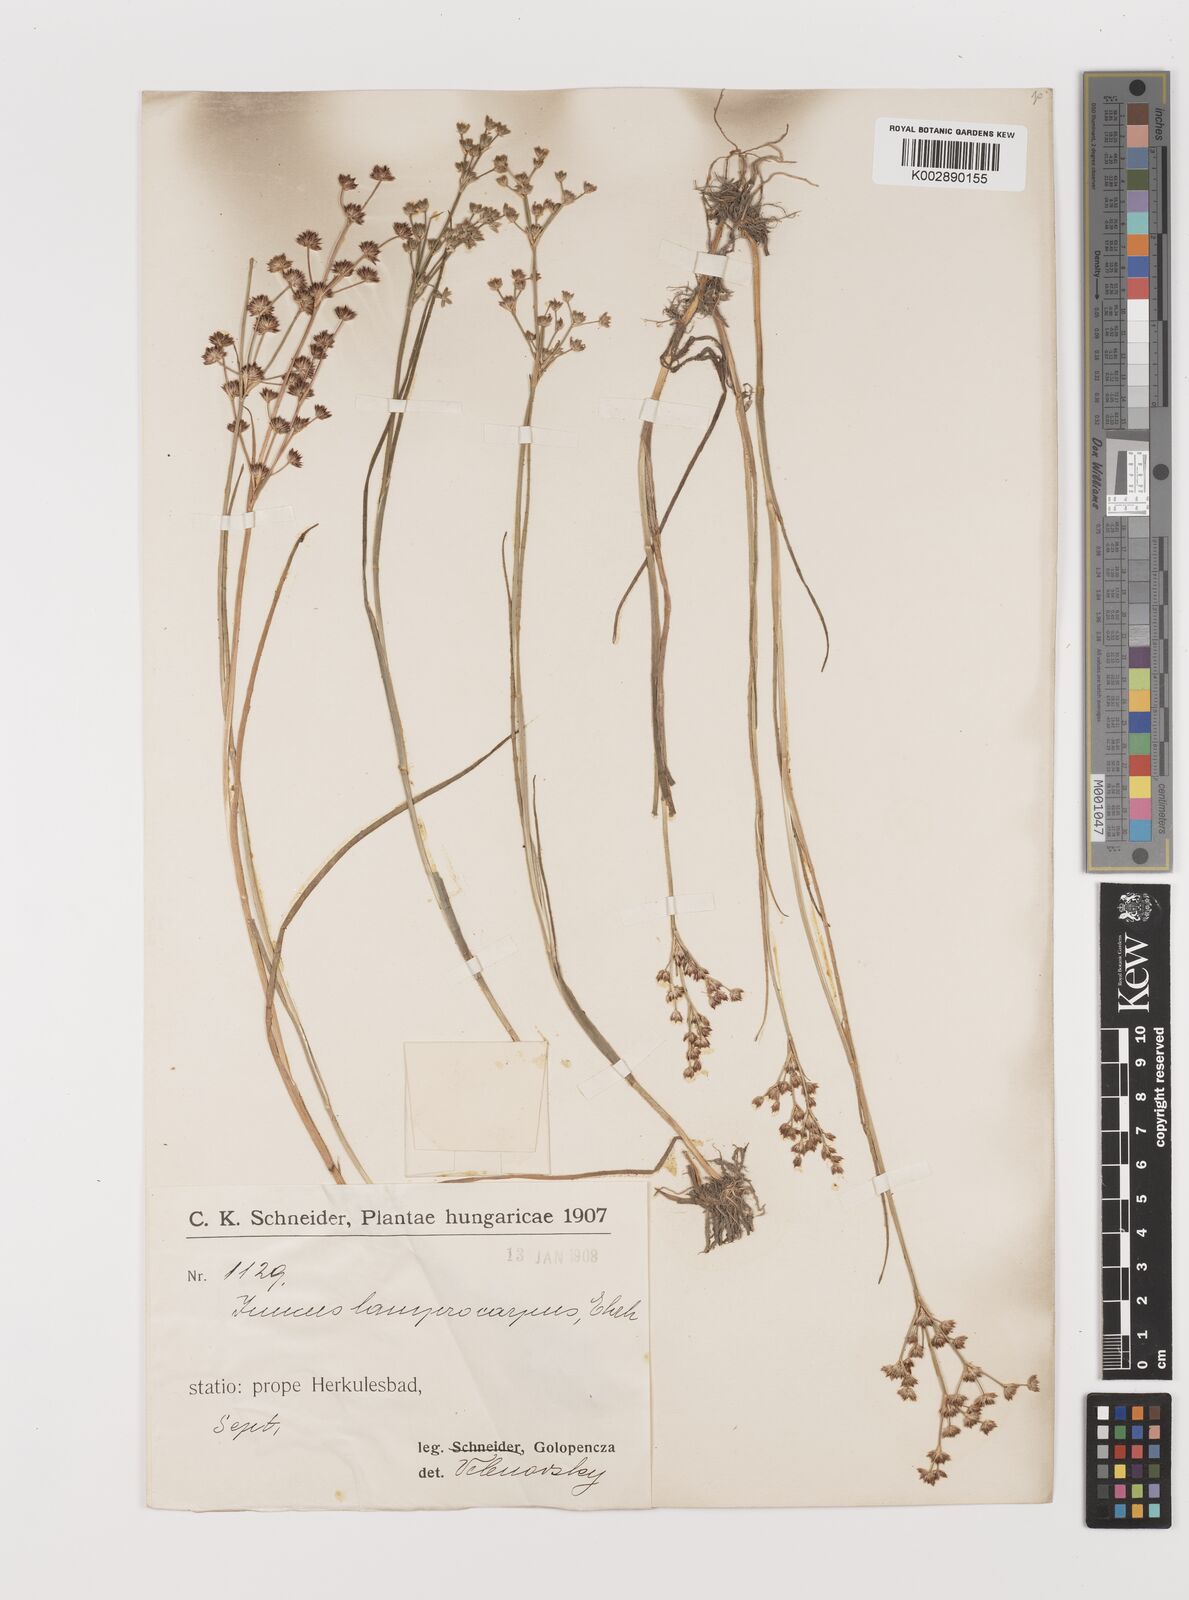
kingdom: Plantae
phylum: Tracheophyta
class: Liliopsida
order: Poales
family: Juncaceae
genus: Juncus
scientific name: Juncus articulatus
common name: Jointed rush
